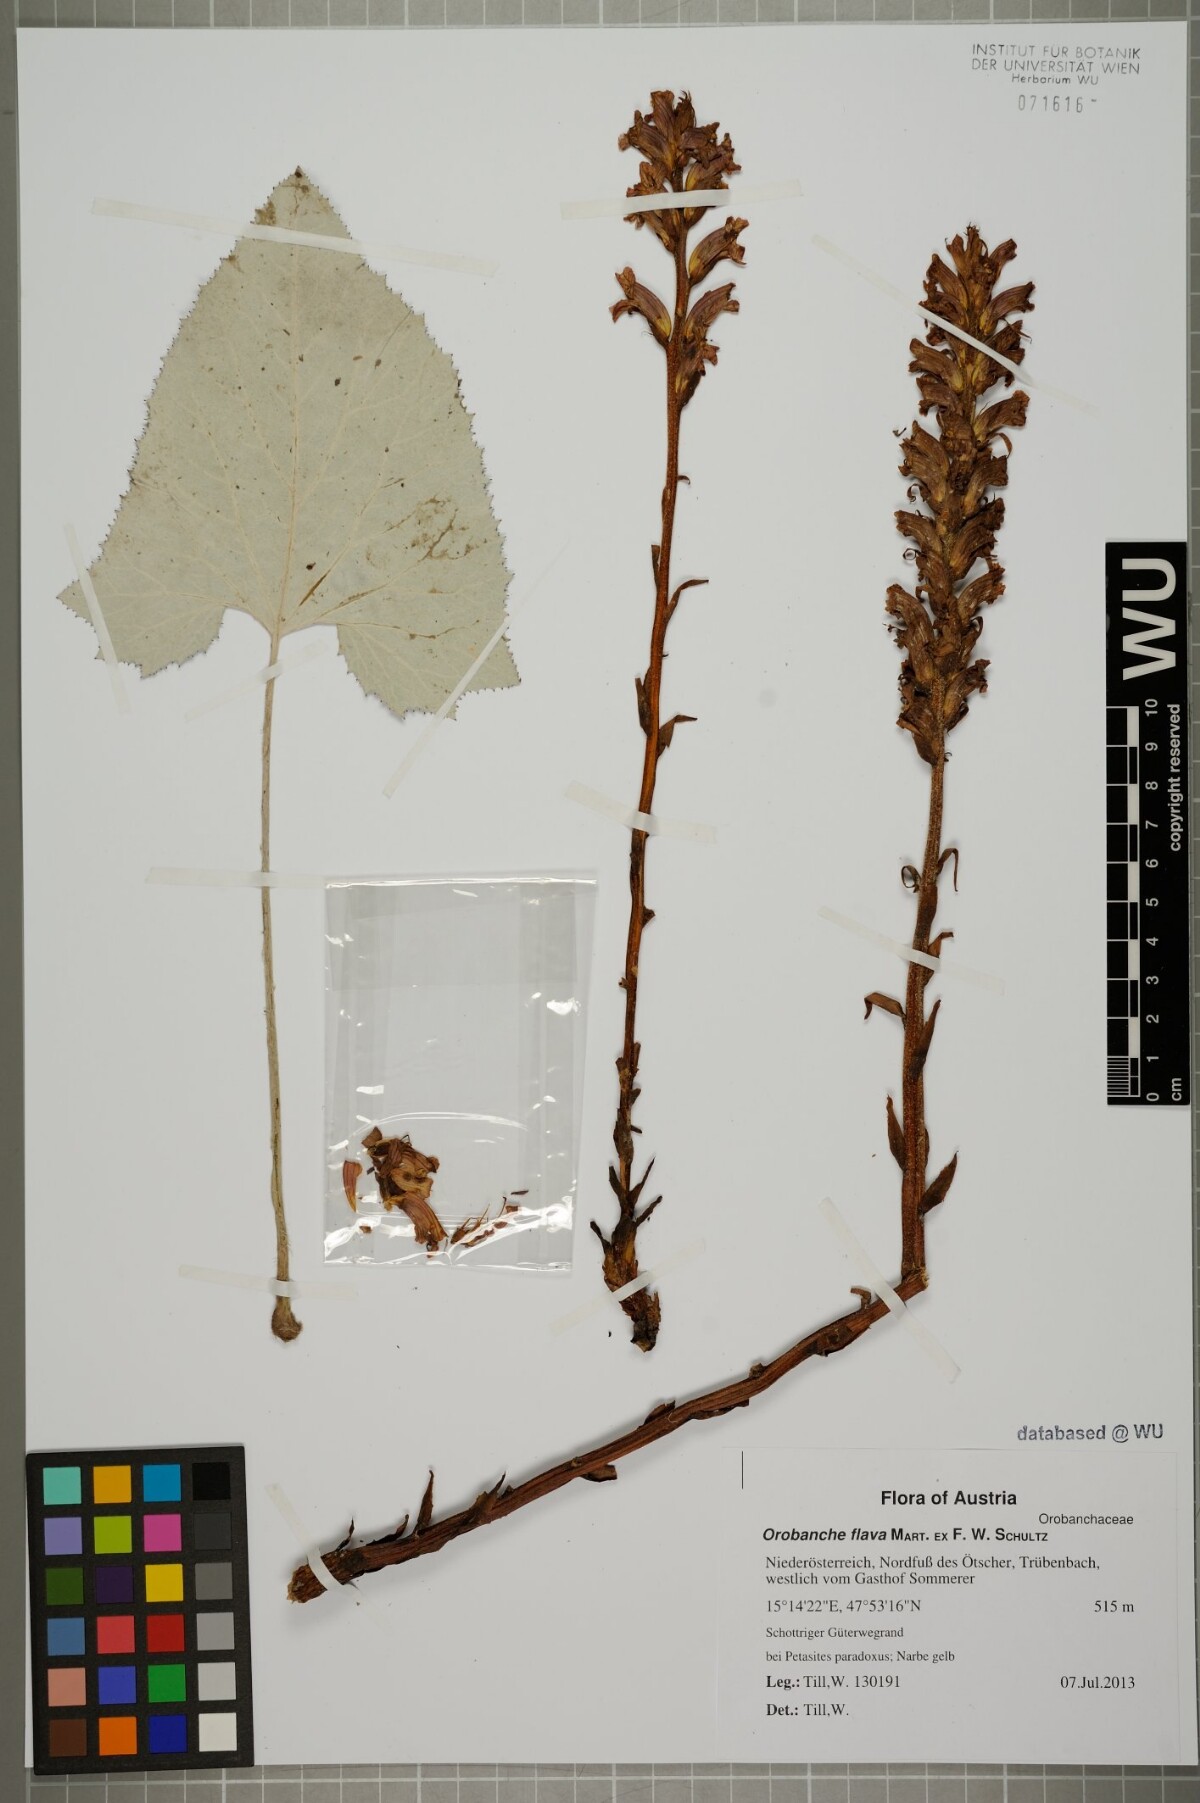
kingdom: Plantae
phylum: Tracheophyta
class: Magnoliopsida
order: Lamiales
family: Orobanchaceae
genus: Orobanche
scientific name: Orobanche flava
